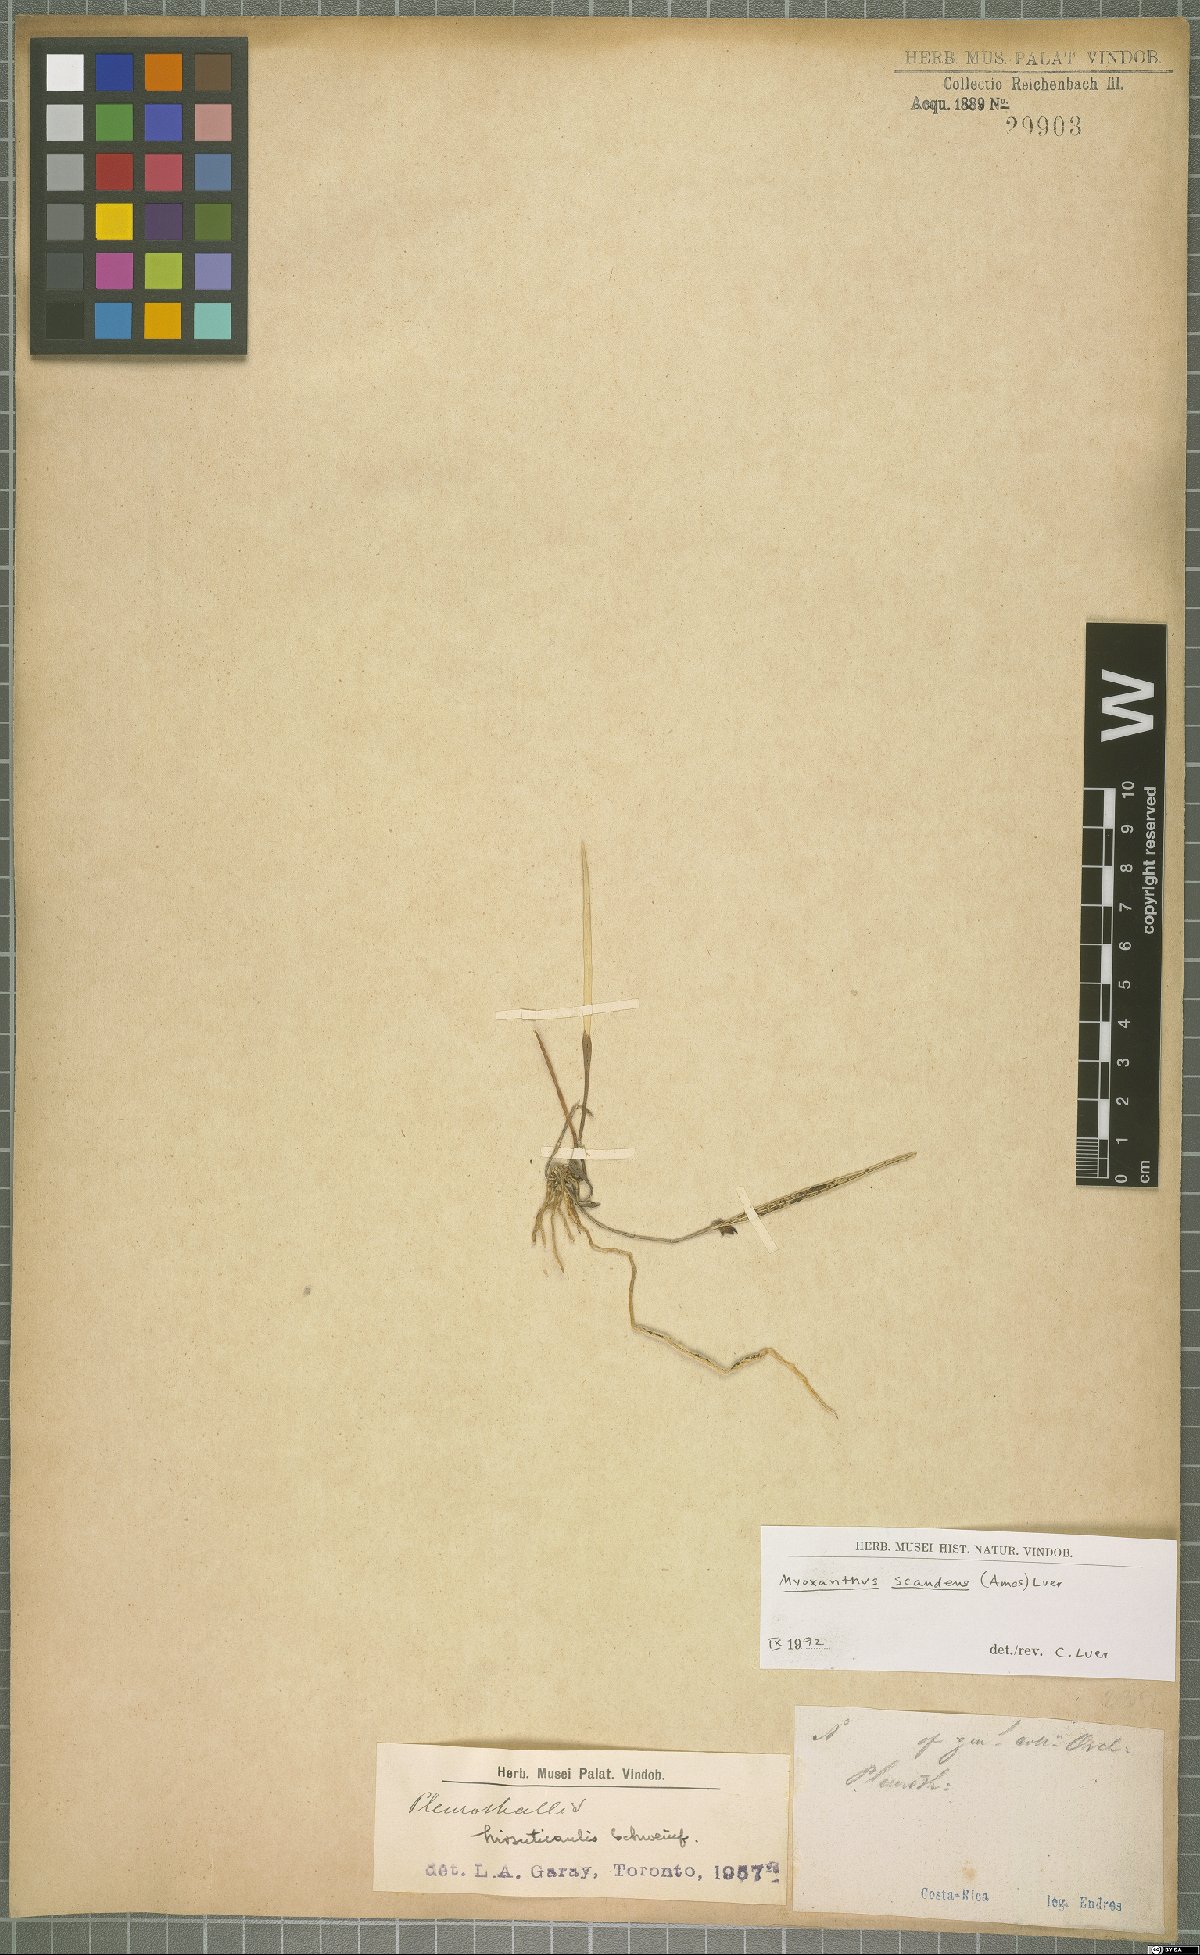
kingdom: Plantae
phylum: Tracheophyta
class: Liliopsida
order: Asparagales
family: Orchidaceae
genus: Myoxanthus
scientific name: Myoxanthus scandens
